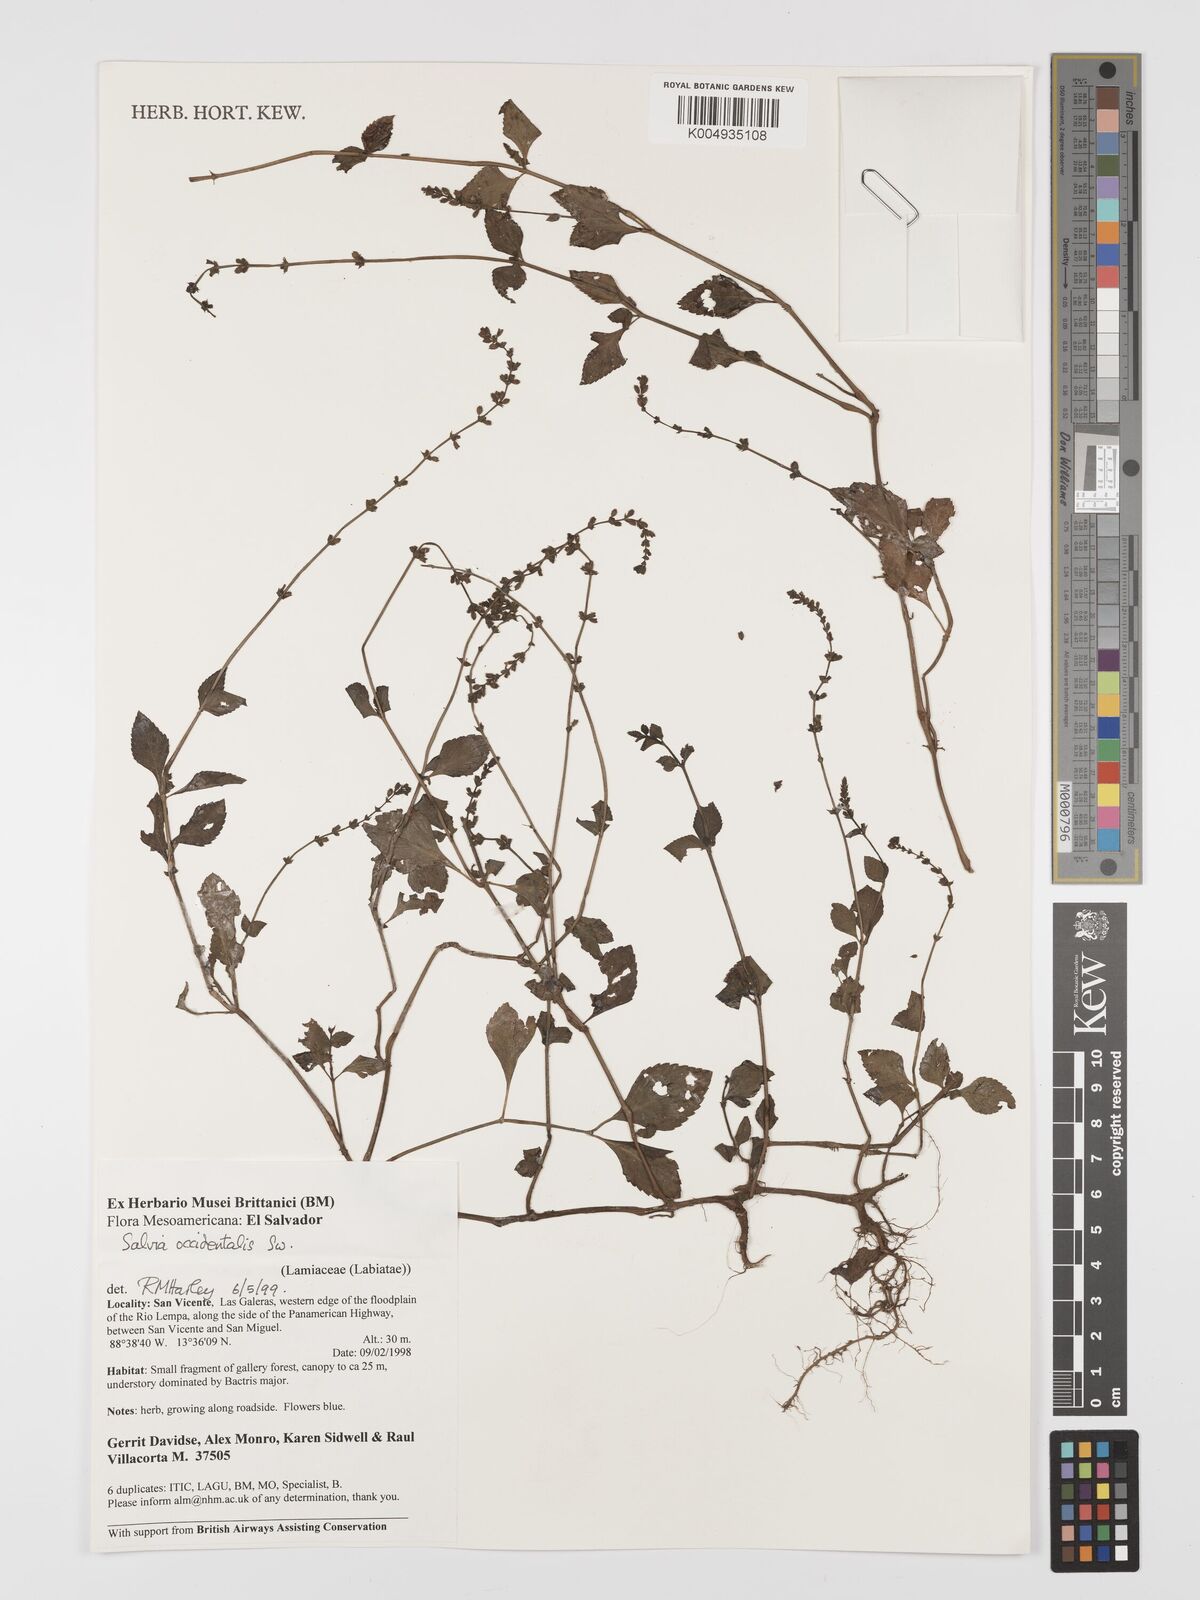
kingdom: Plantae
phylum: Tracheophyta
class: Magnoliopsida
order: Lamiales
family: Lamiaceae
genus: Salvia
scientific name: Salvia occidentalis
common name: West indian sage
